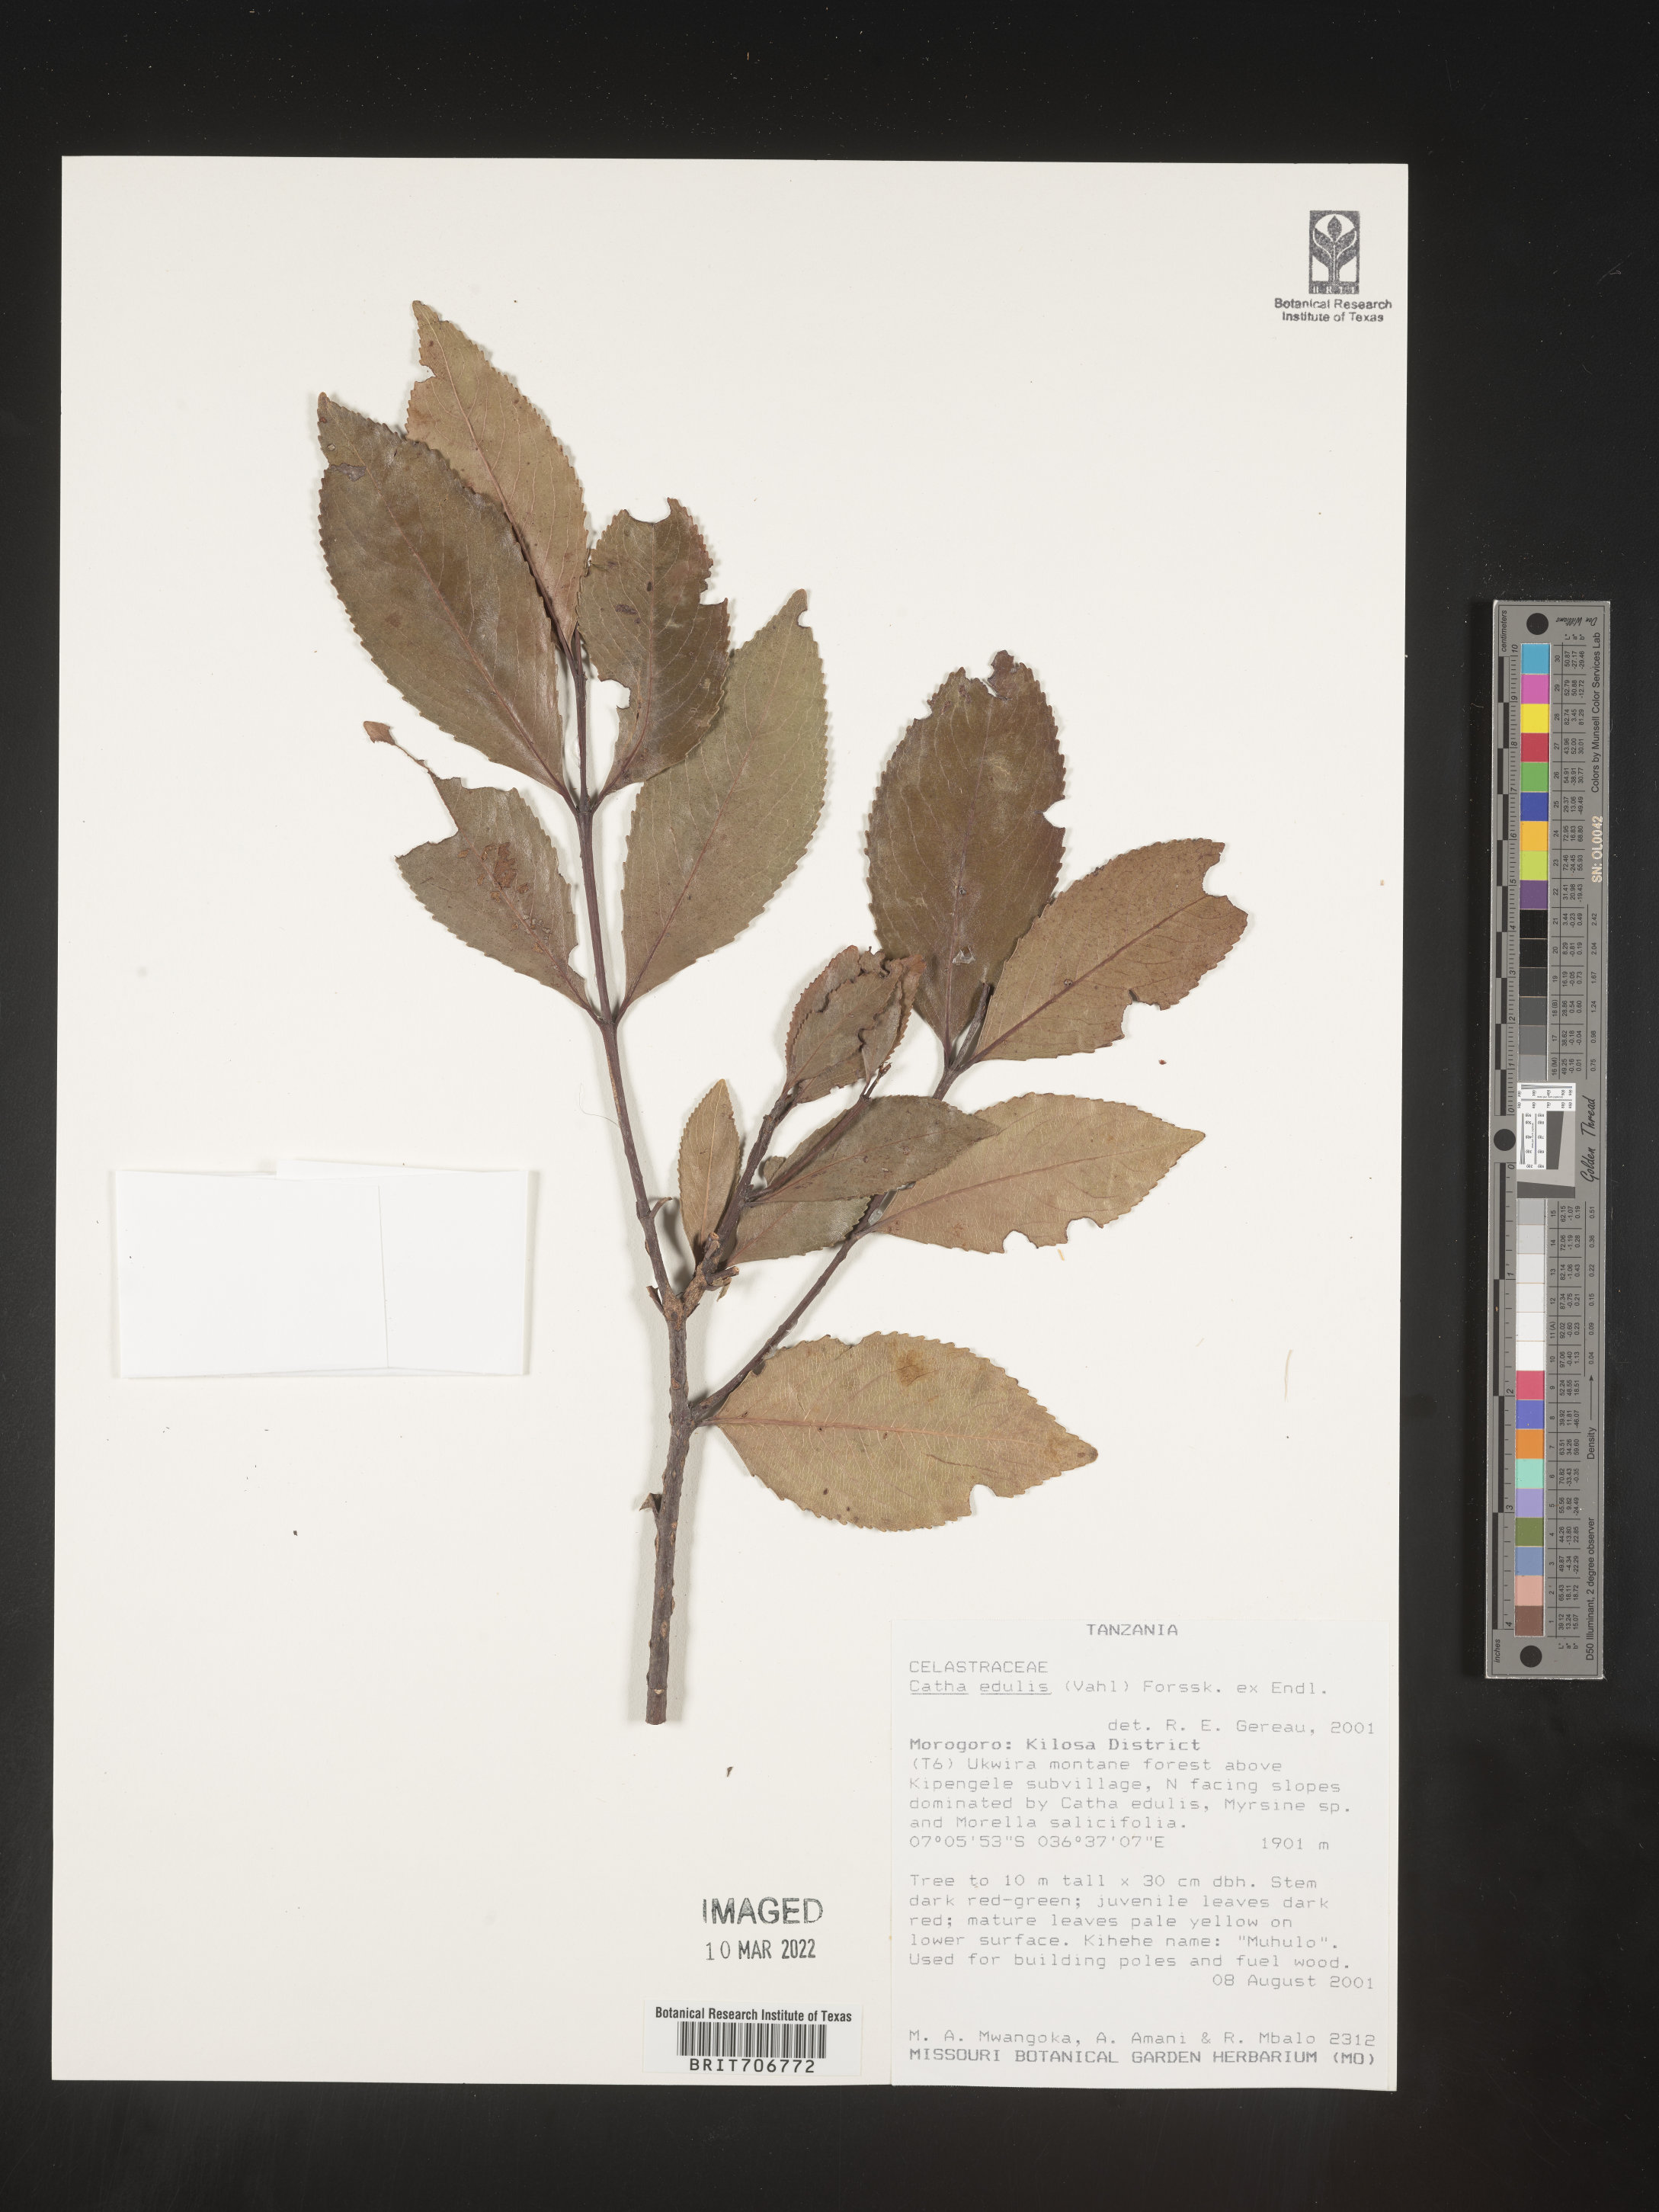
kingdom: Plantae
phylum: Tracheophyta
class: Magnoliopsida
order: Celastrales
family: Celastraceae
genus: Catha
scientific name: Catha
